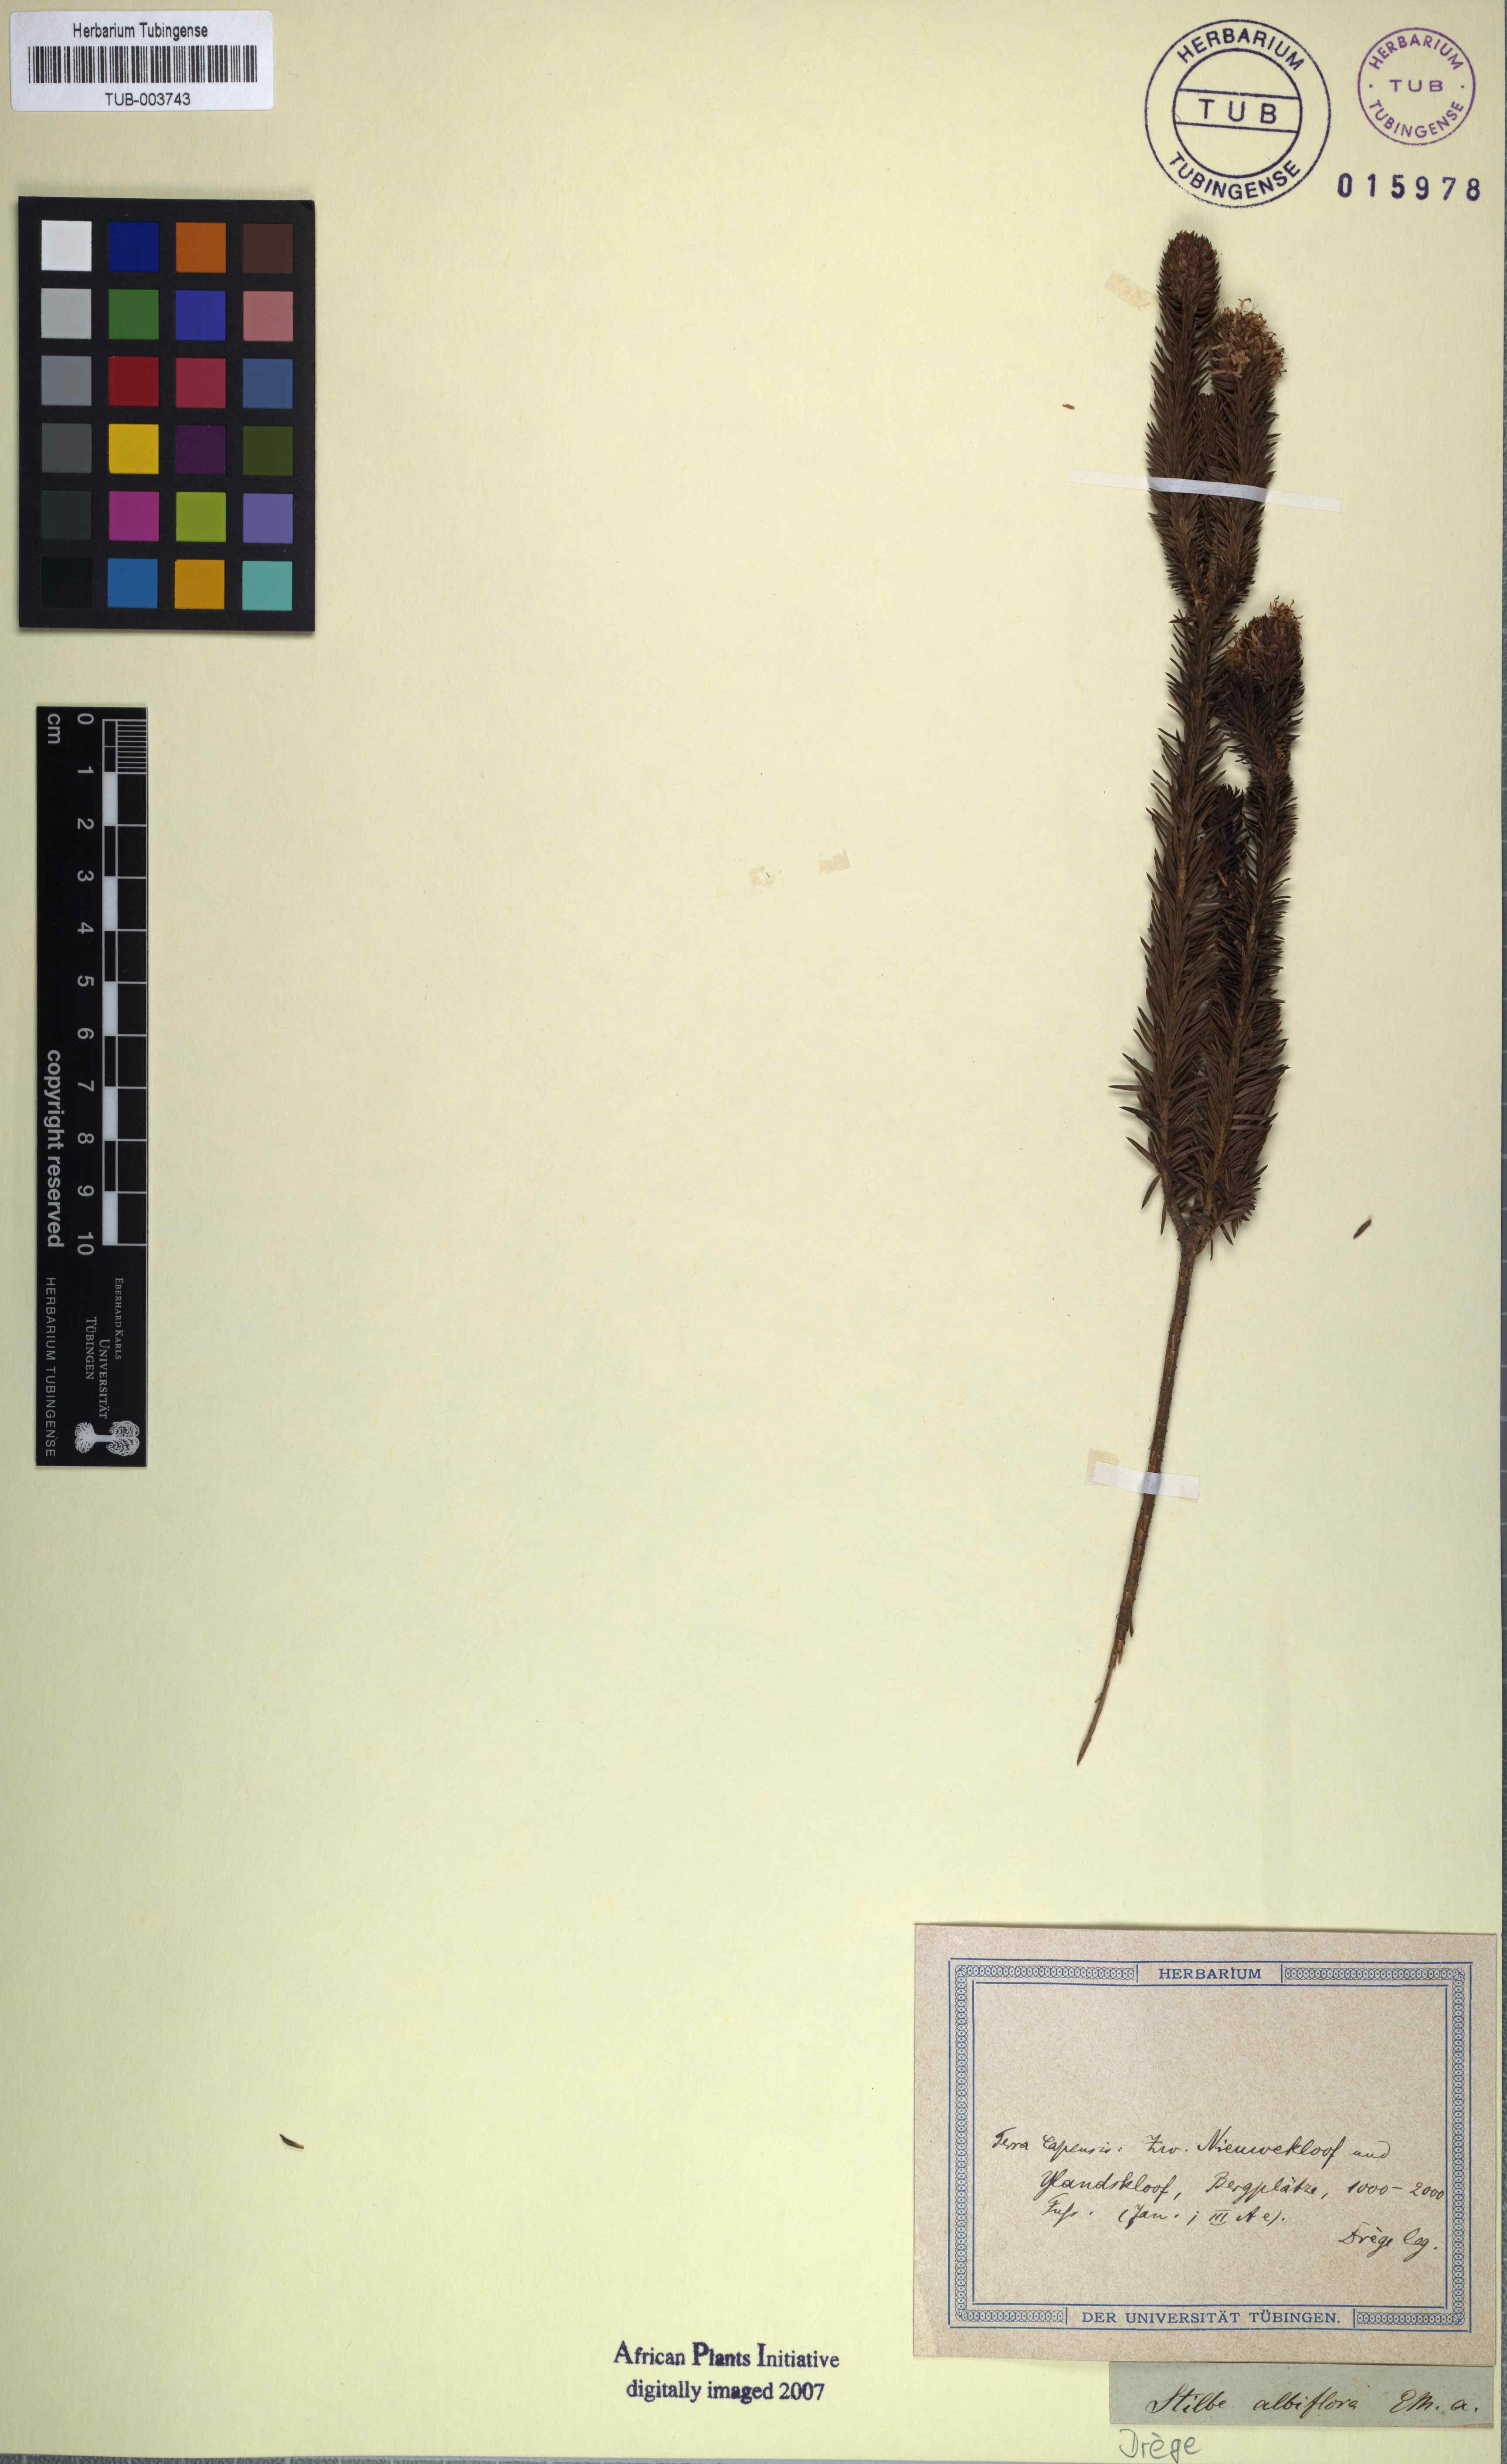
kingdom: Plantae
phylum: Tracheophyta
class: Magnoliopsida
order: Lamiales
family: Stilbaceae
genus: Stilbe
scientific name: Stilbe albiflora
